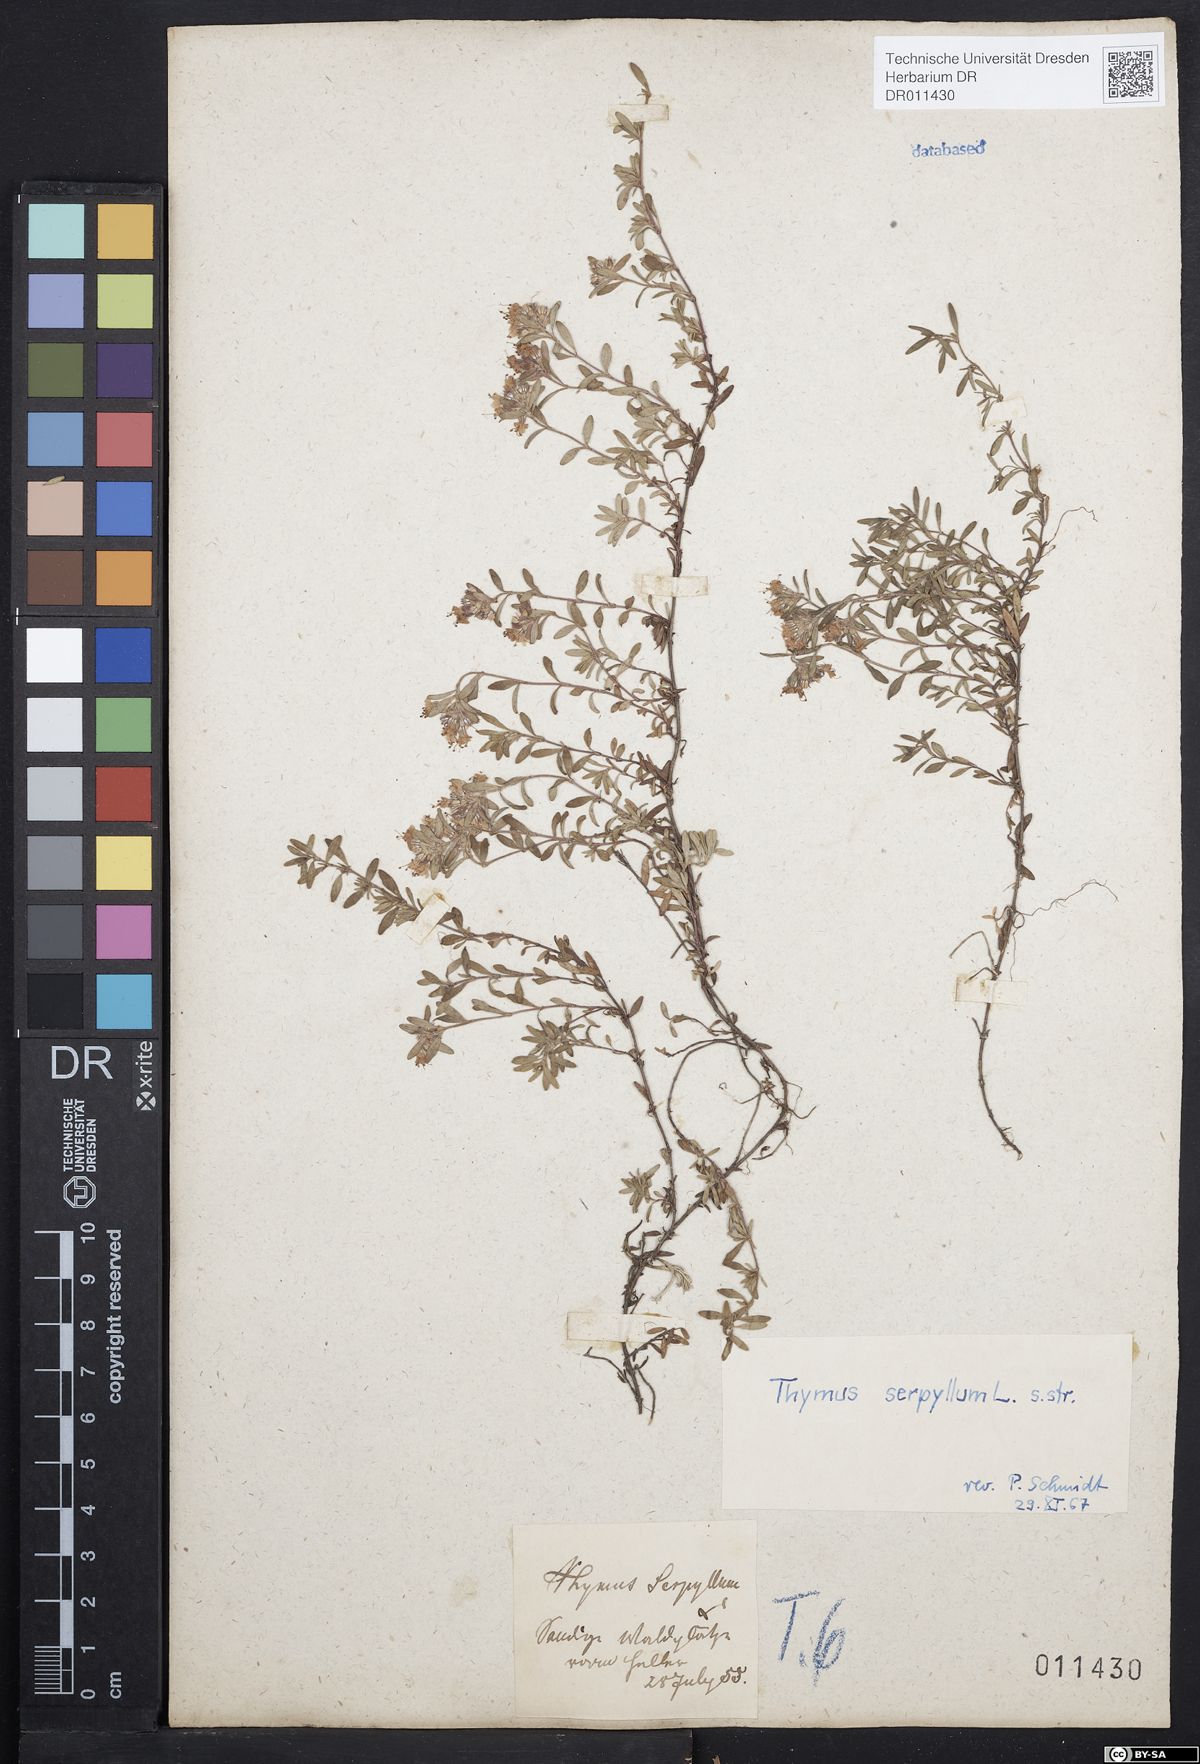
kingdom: Plantae
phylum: Tracheophyta
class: Magnoliopsida
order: Lamiales
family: Lamiaceae
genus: Thymus
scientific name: Thymus serpyllum
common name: Breckland thyme
